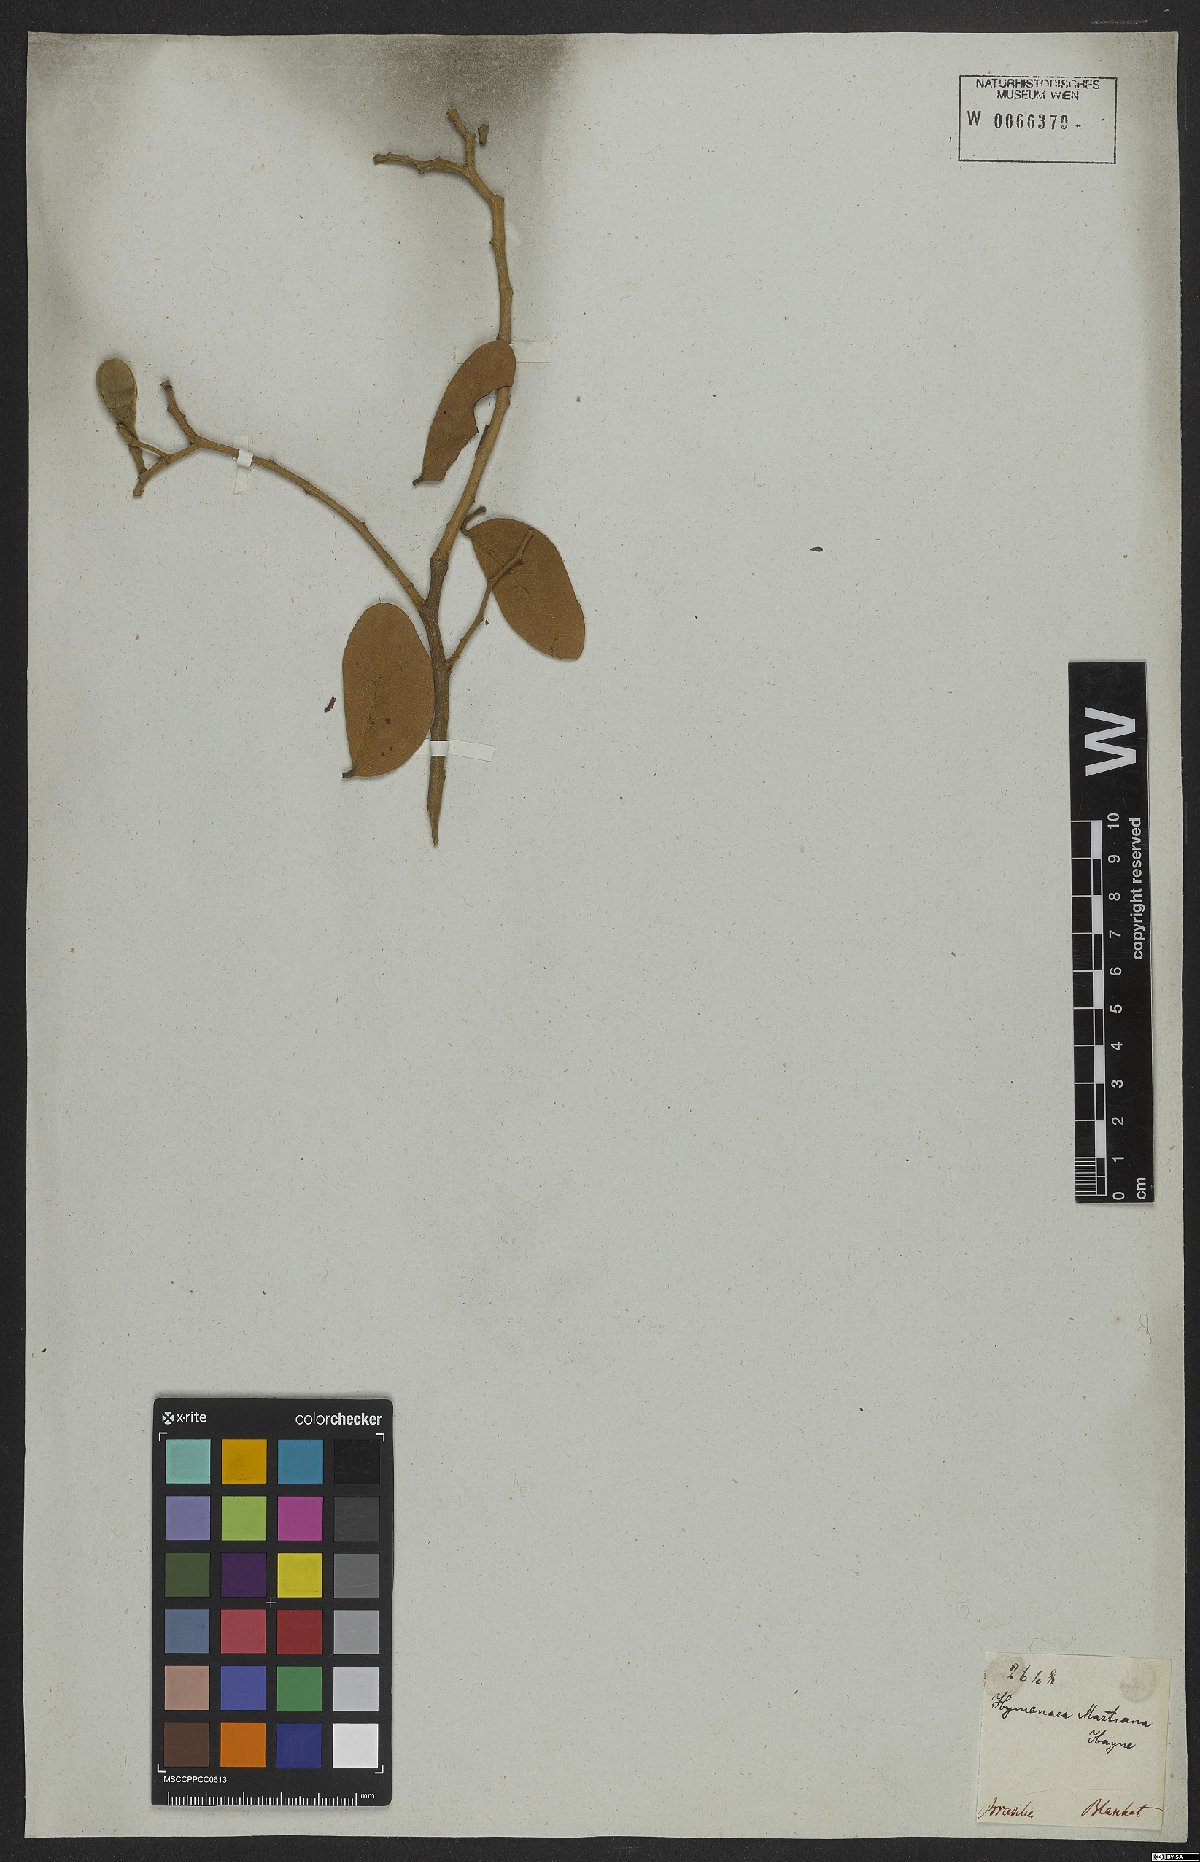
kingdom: Plantae
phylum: Tracheophyta
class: Magnoliopsida
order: Fabales
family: Fabaceae
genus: Hymenaea
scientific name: Hymenaea martiana
